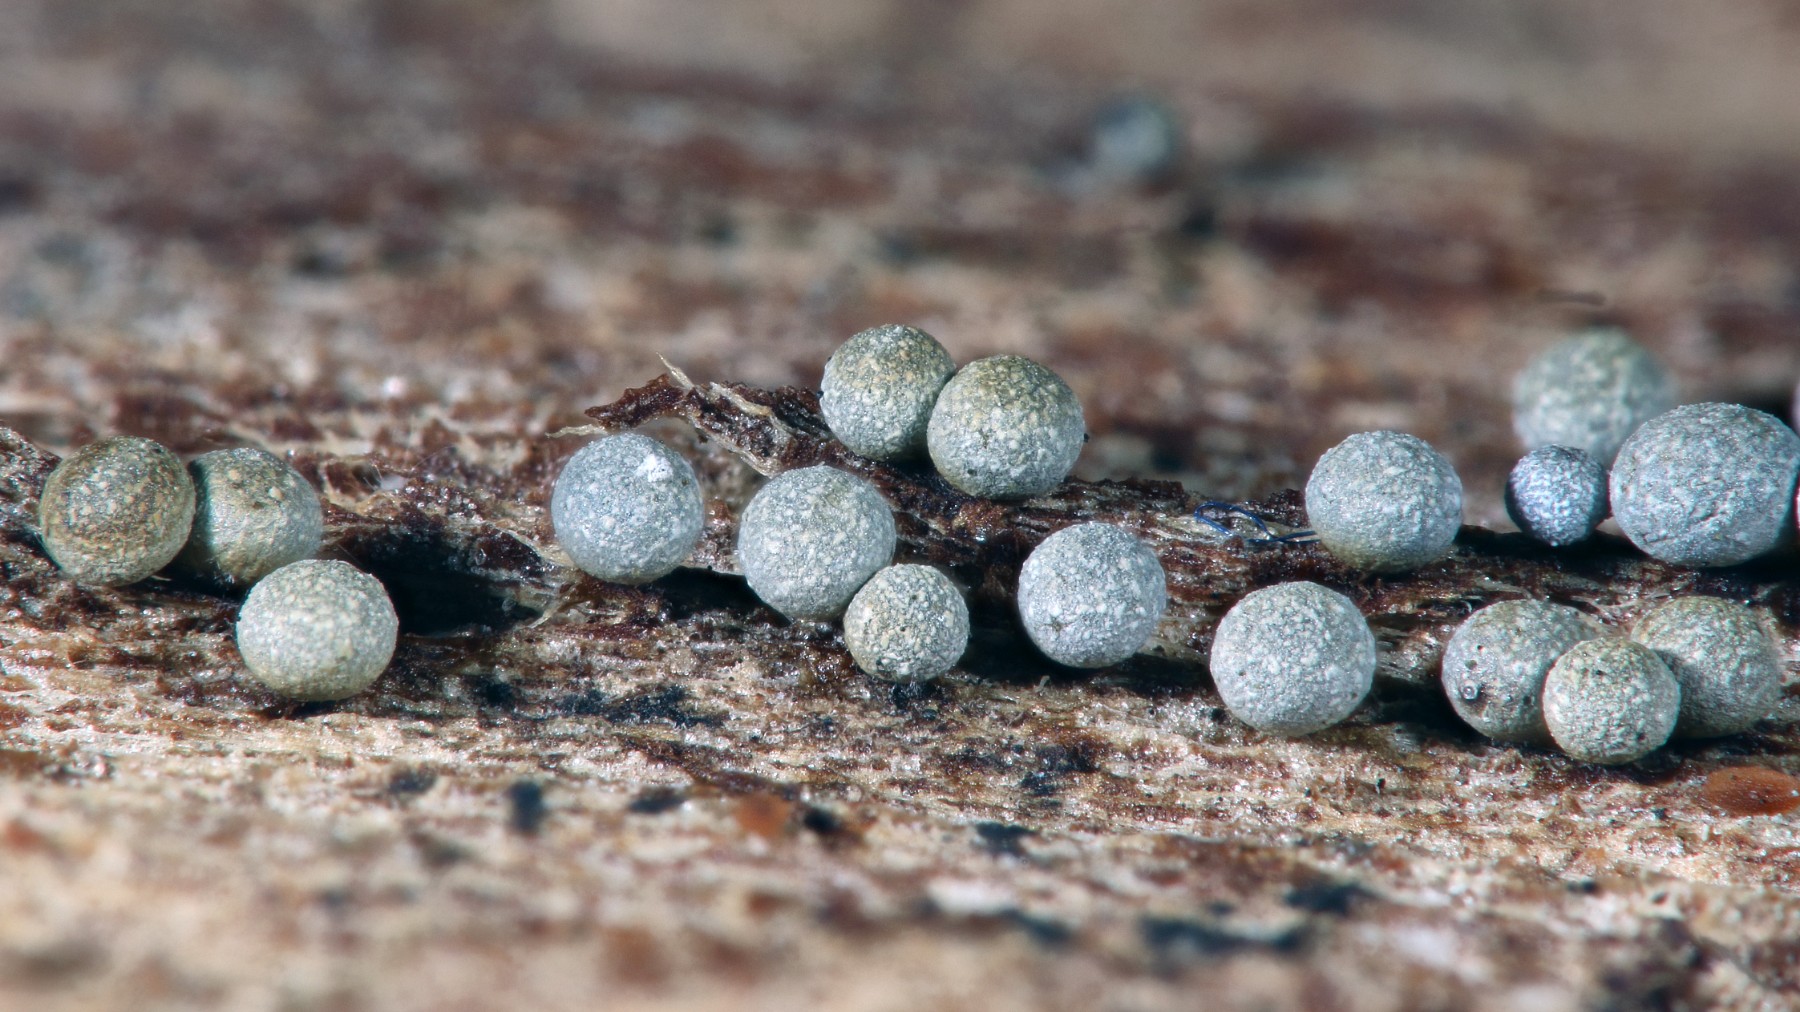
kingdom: Protozoa
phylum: Mycetozoa
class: Myxomycetes
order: Physarales
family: Physaraceae
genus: Badhamia
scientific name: Badhamia panicea
